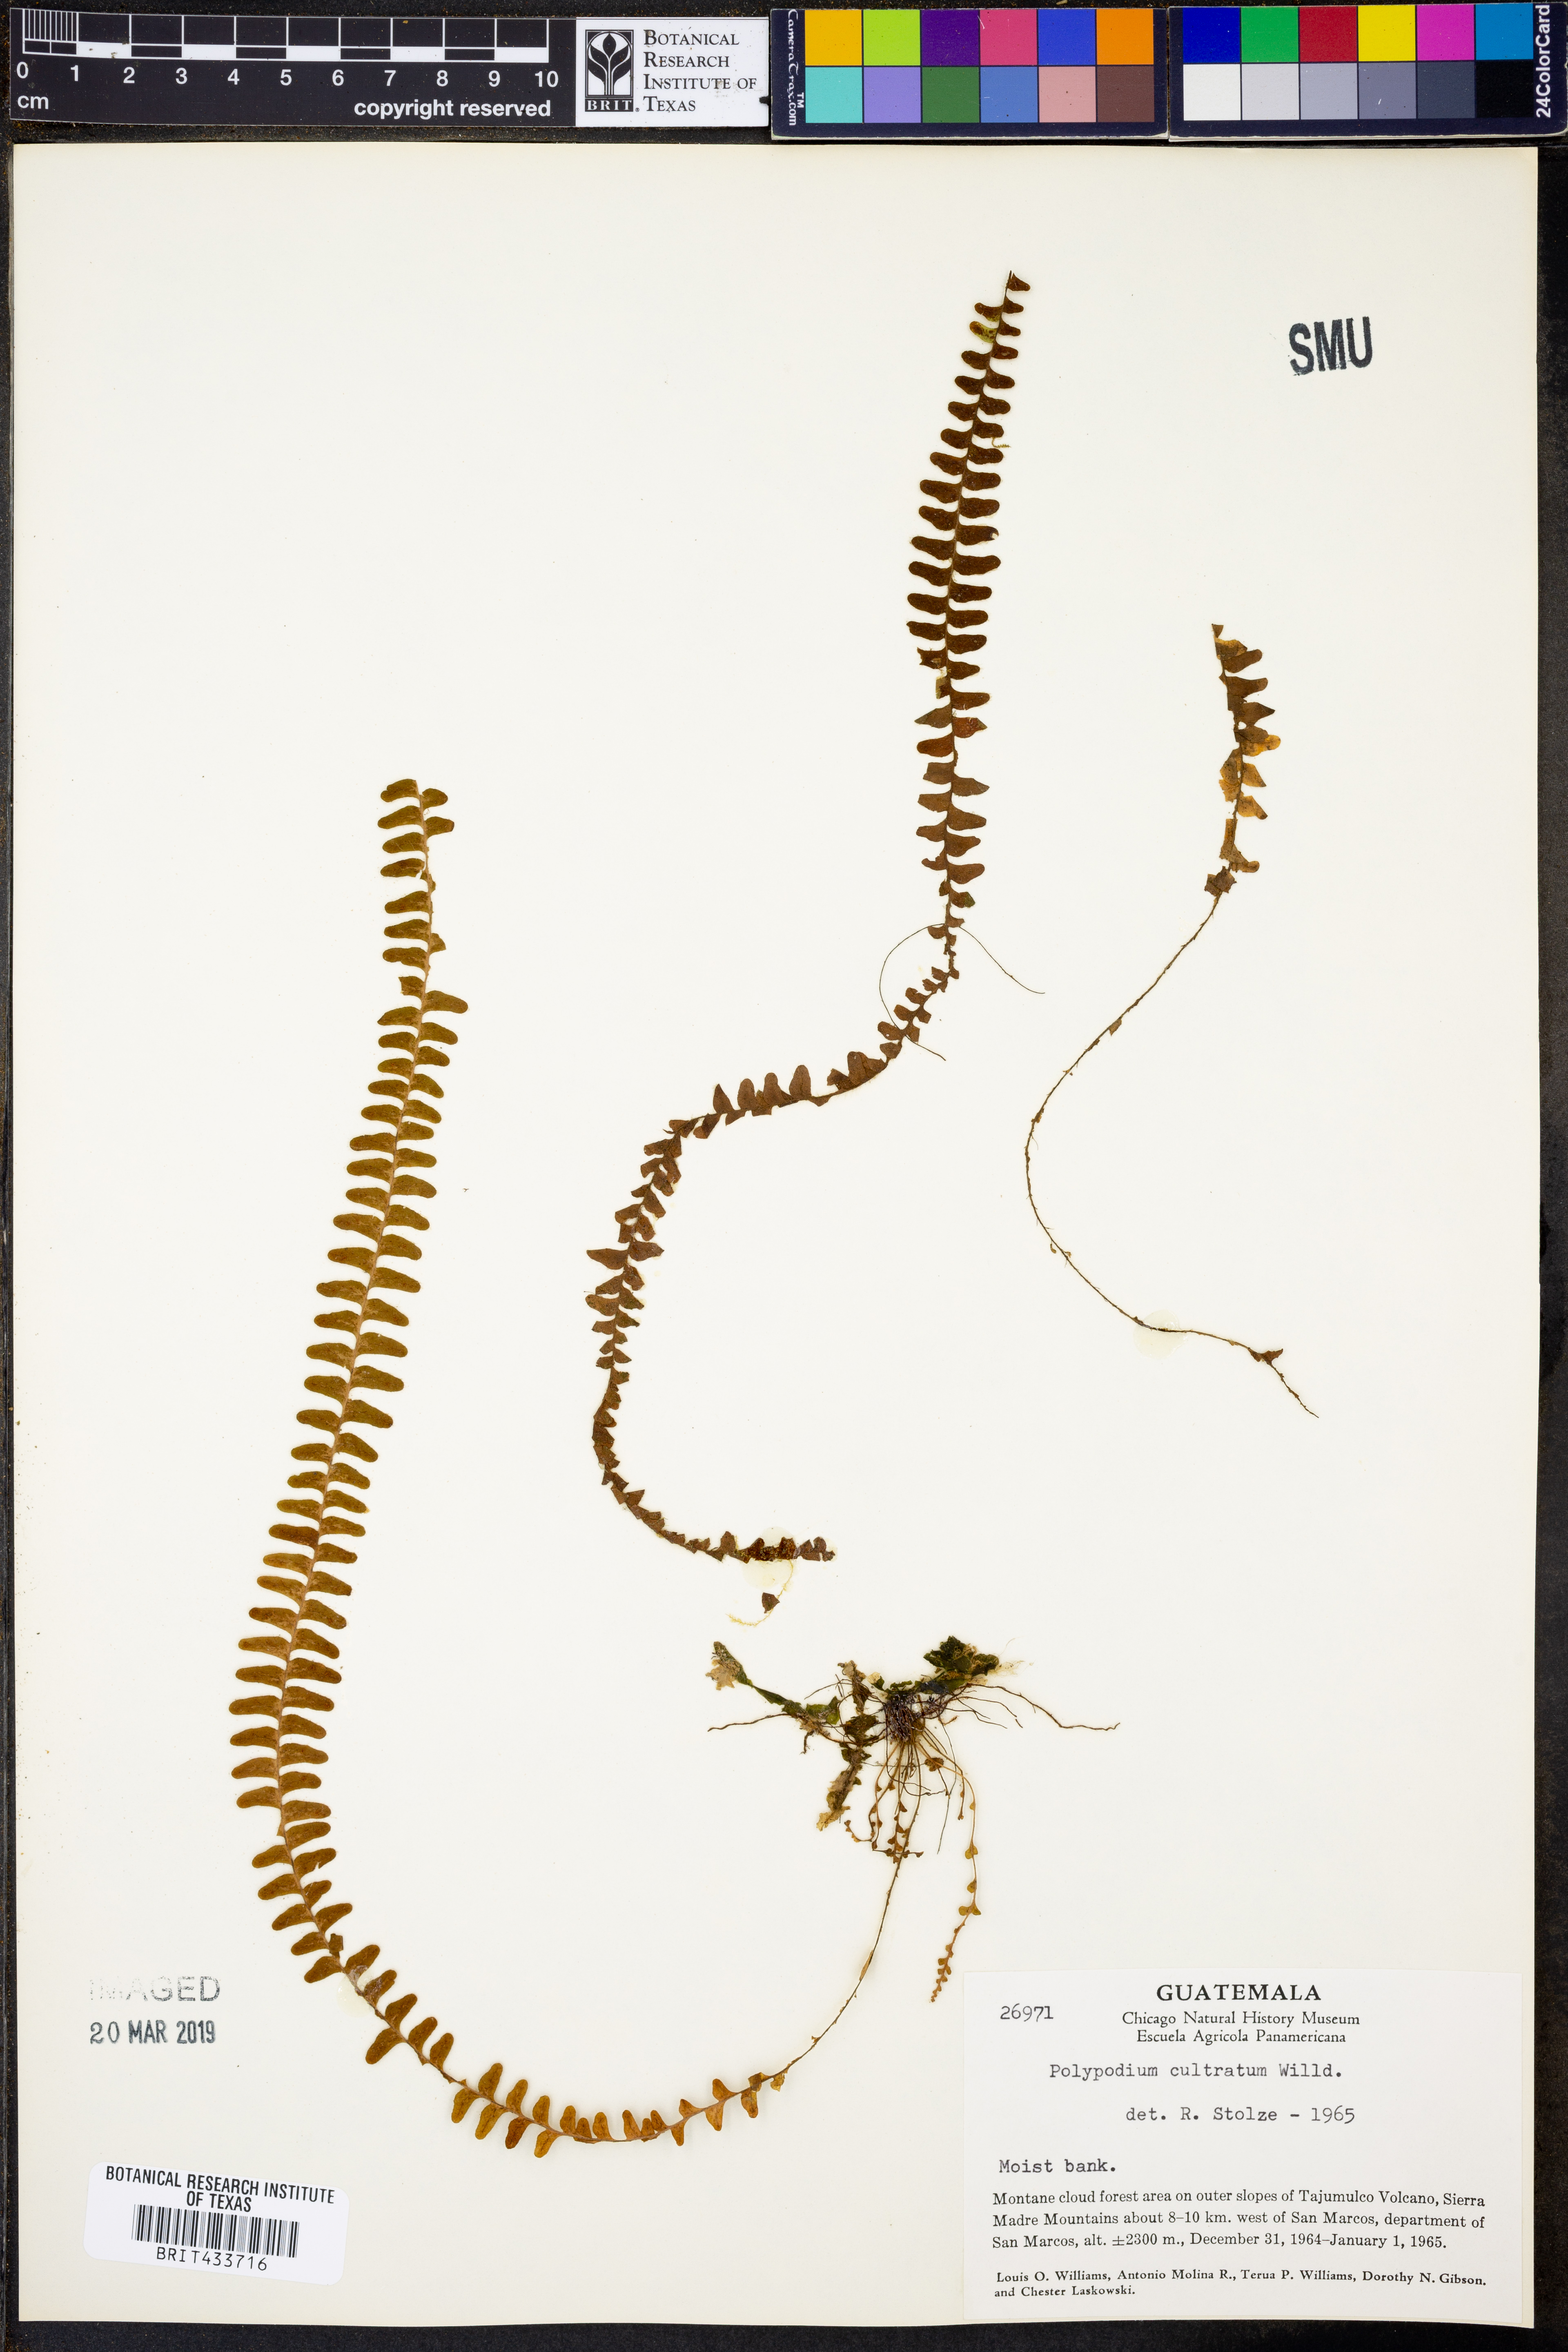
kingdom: Plantae
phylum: Tracheophyta
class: Polypodiopsida
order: Polypodiales
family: Polypodiaceae
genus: Alansmia
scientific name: Alansmia cultrata
